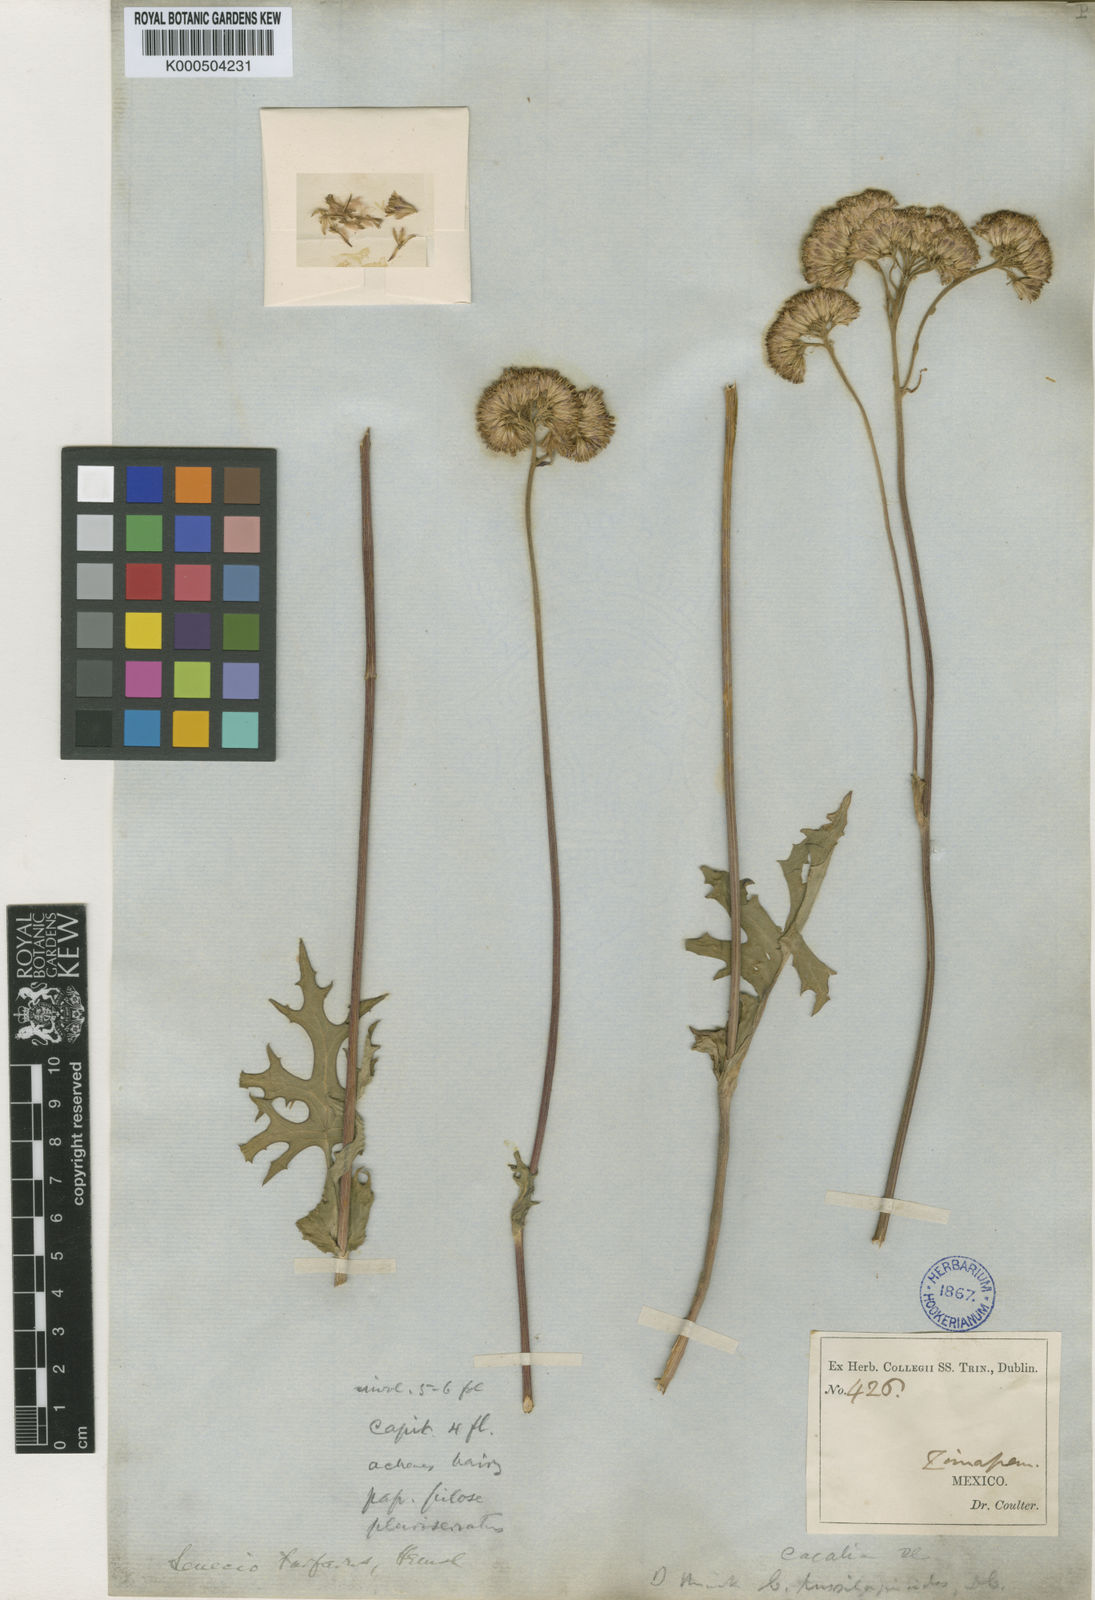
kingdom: Plantae
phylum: Tracheophyta
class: Magnoliopsida
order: Asterales
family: Asteraceae
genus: Psacalium
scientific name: Psacalium tussilaginoides
